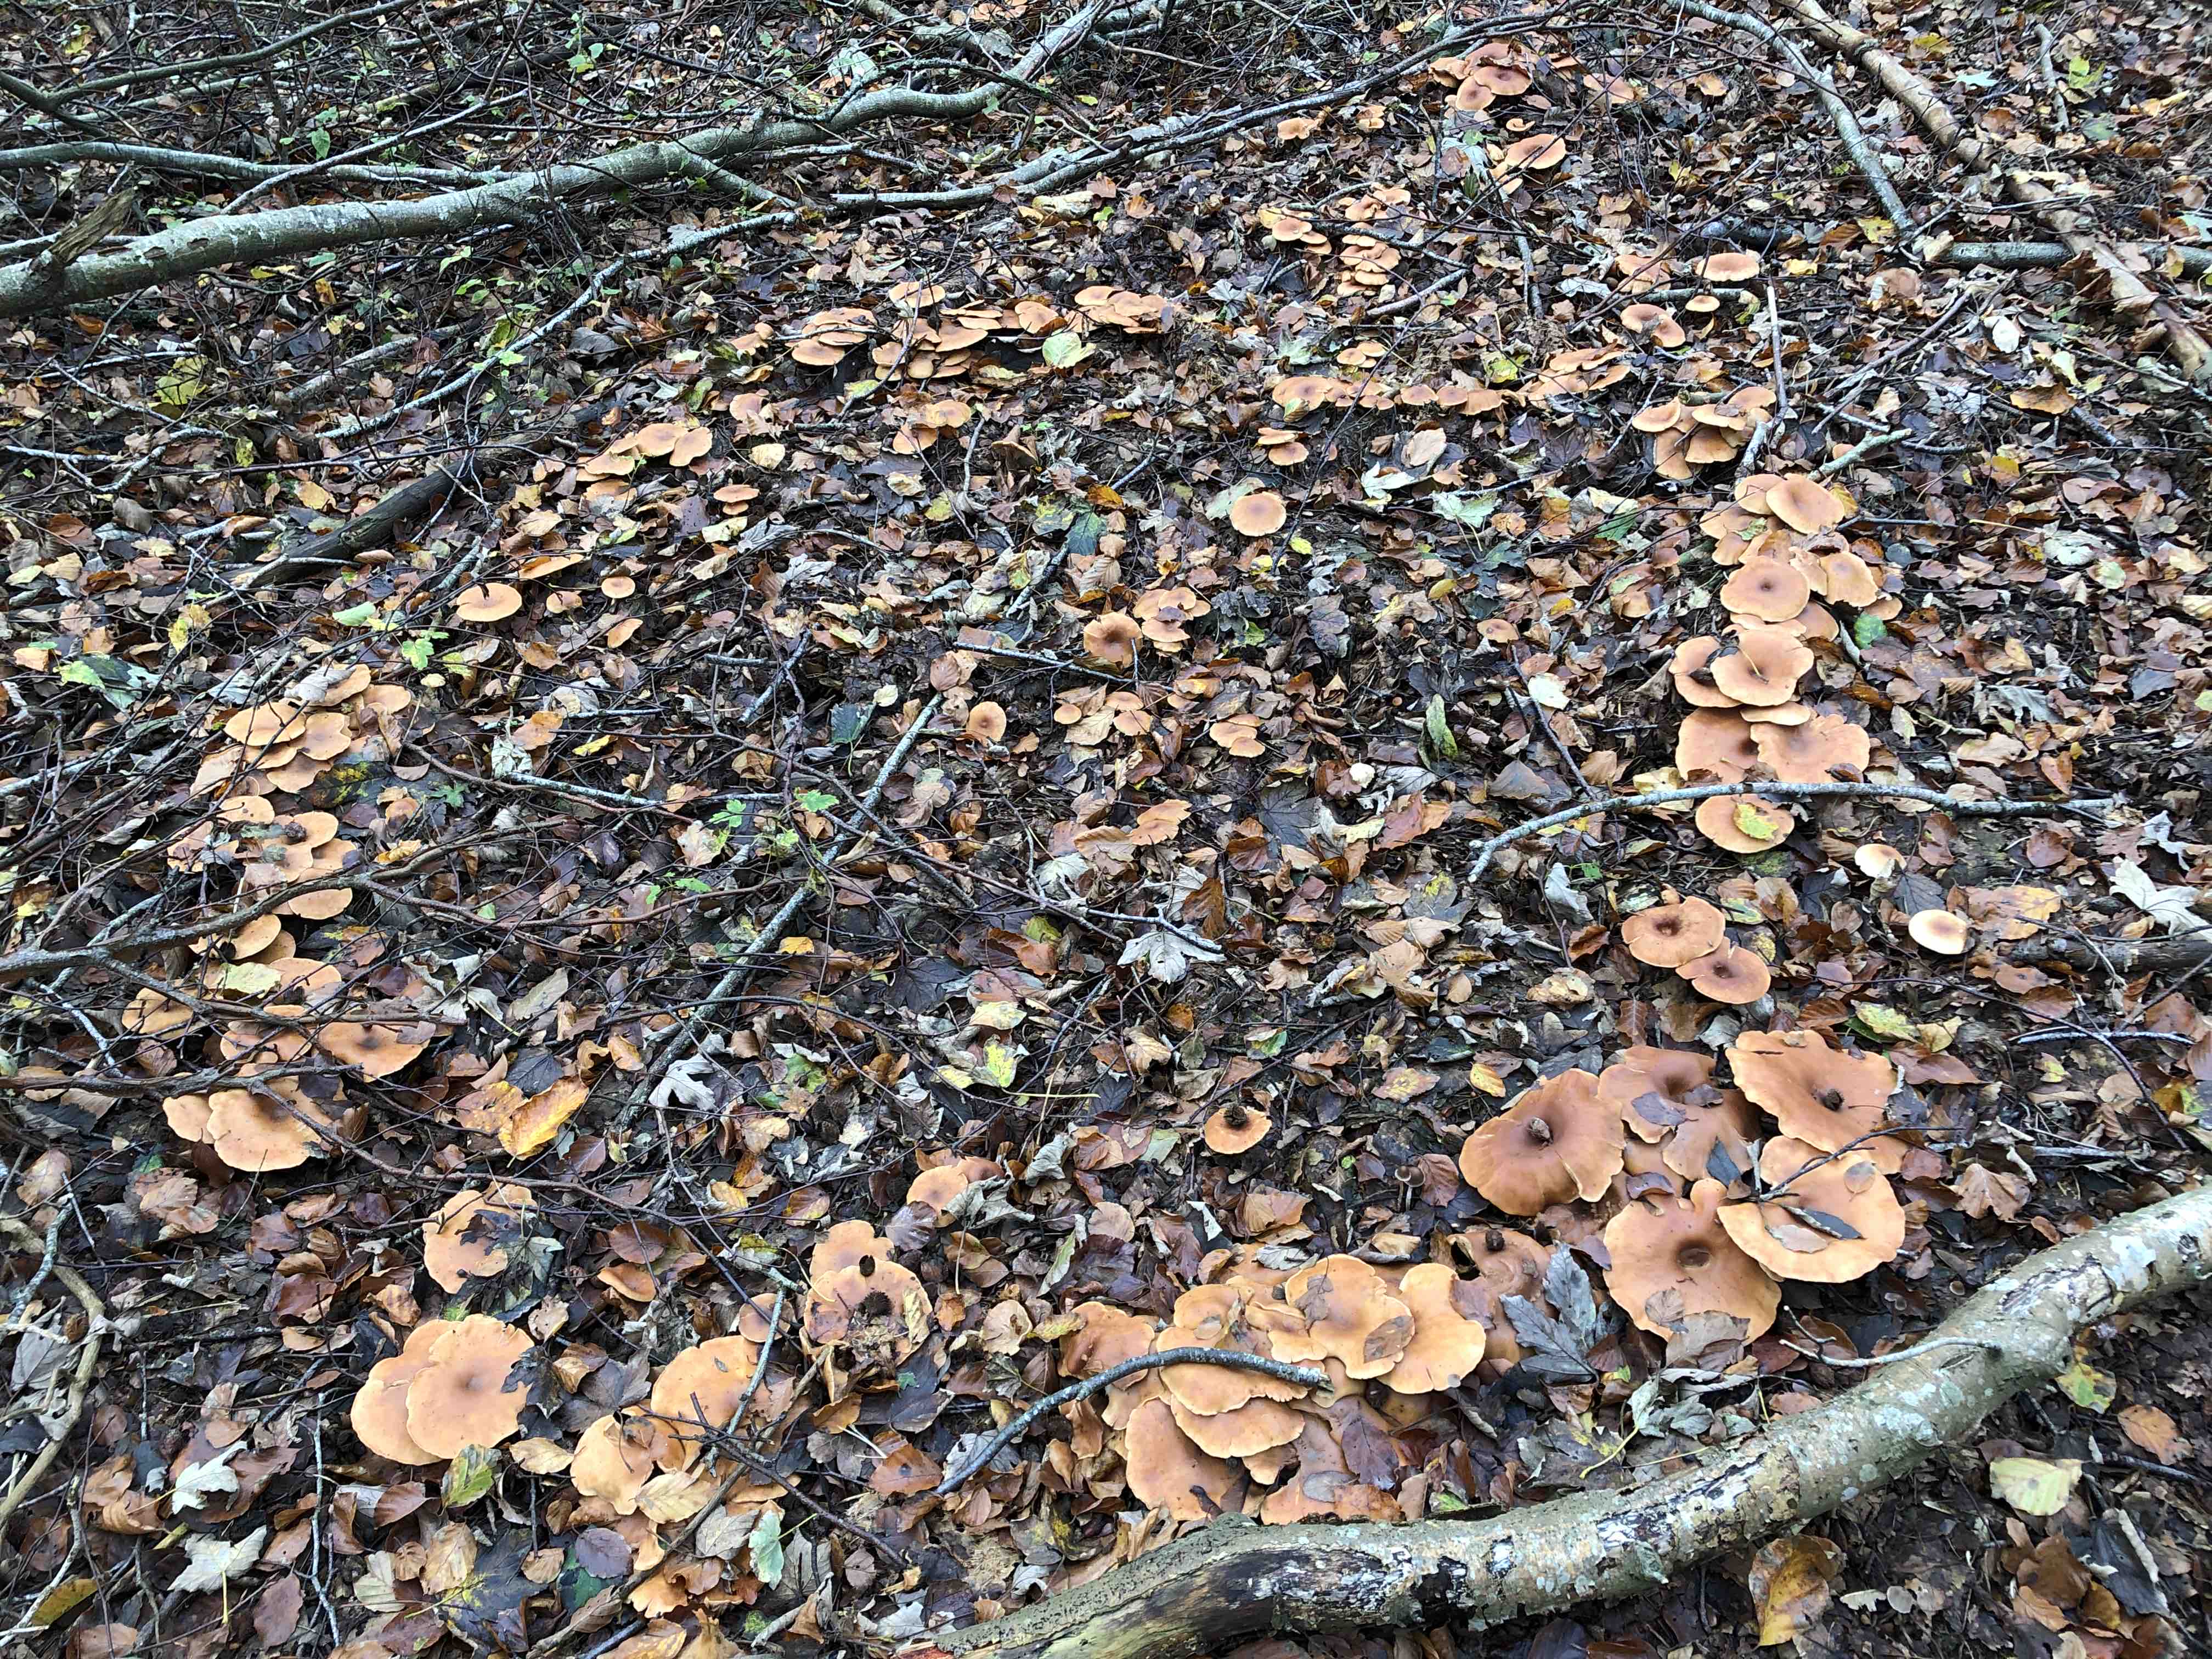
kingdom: Fungi
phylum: Basidiomycota
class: Agaricomycetes
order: Agaricales
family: Tricholomataceae
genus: Paralepista
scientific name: Paralepista flaccida
